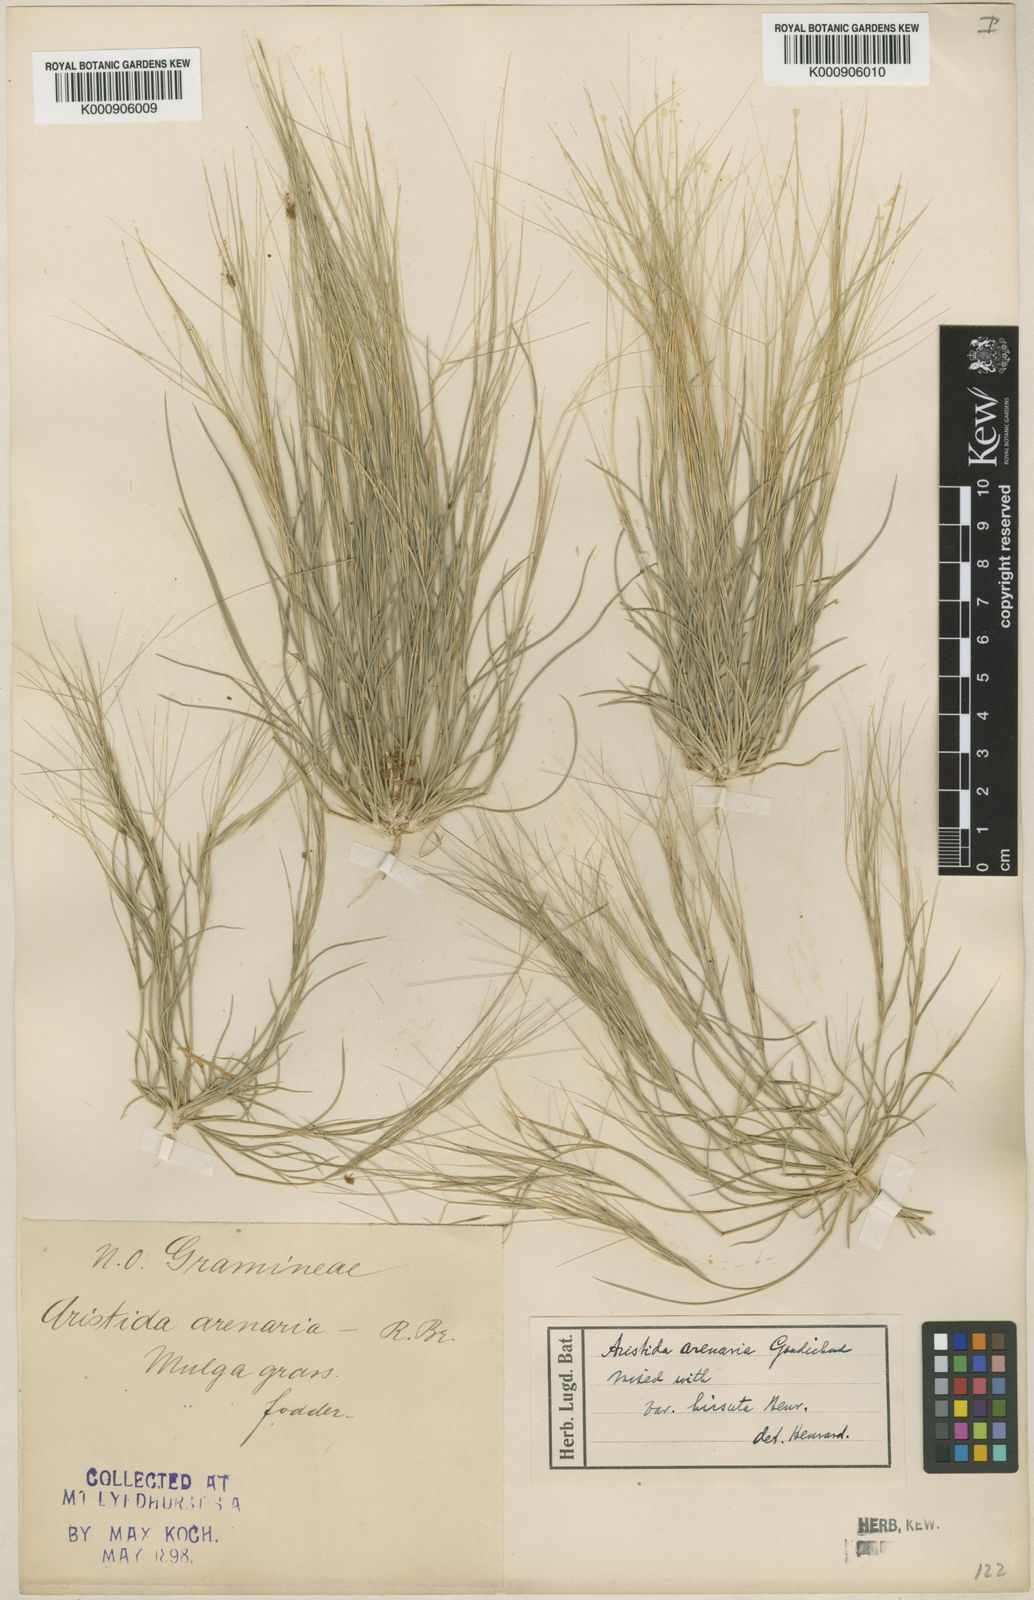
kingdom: Plantae
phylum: Tracheophyta
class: Liliopsida
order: Poales
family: Poaceae
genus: Aristida
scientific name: Aristida contorta
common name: Bunch kerosene grass
